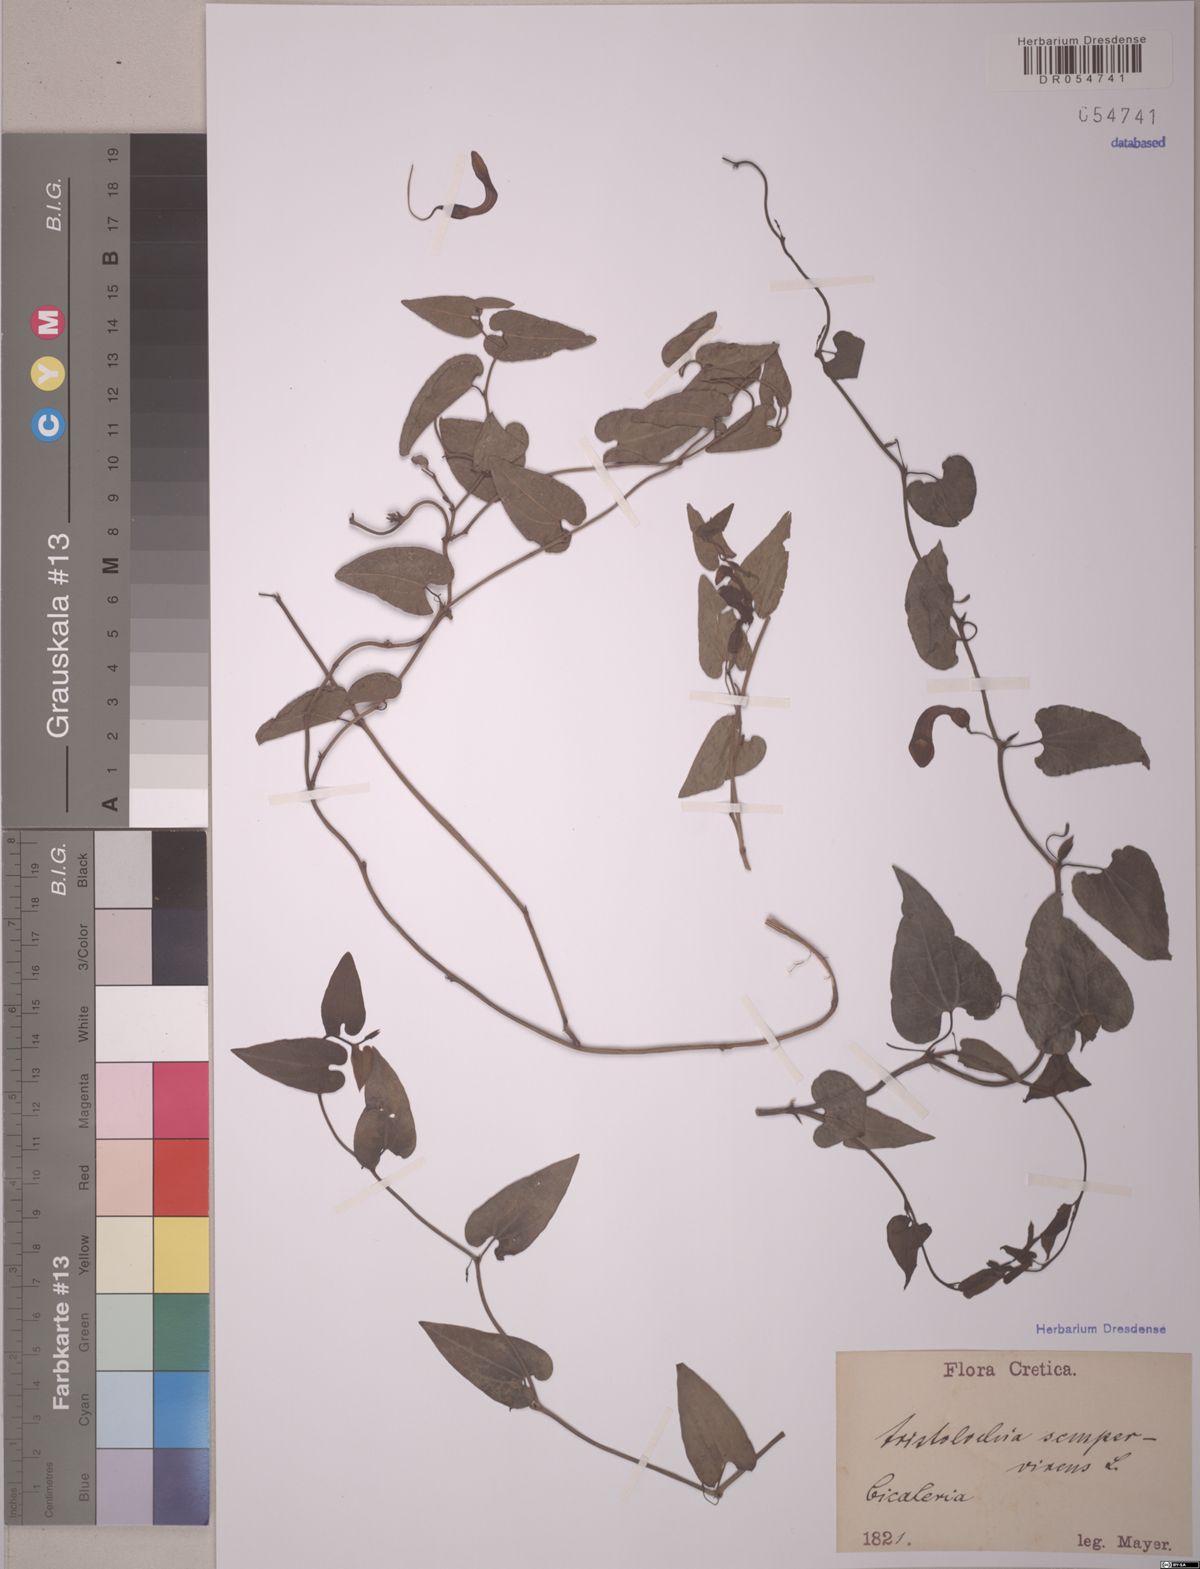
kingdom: Plantae
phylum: Tracheophyta
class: Magnoliopsida
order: Piperales
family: Aristolochiaceae
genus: Aristolochia
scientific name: Aristolochia sempervirens
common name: Long birthwort
